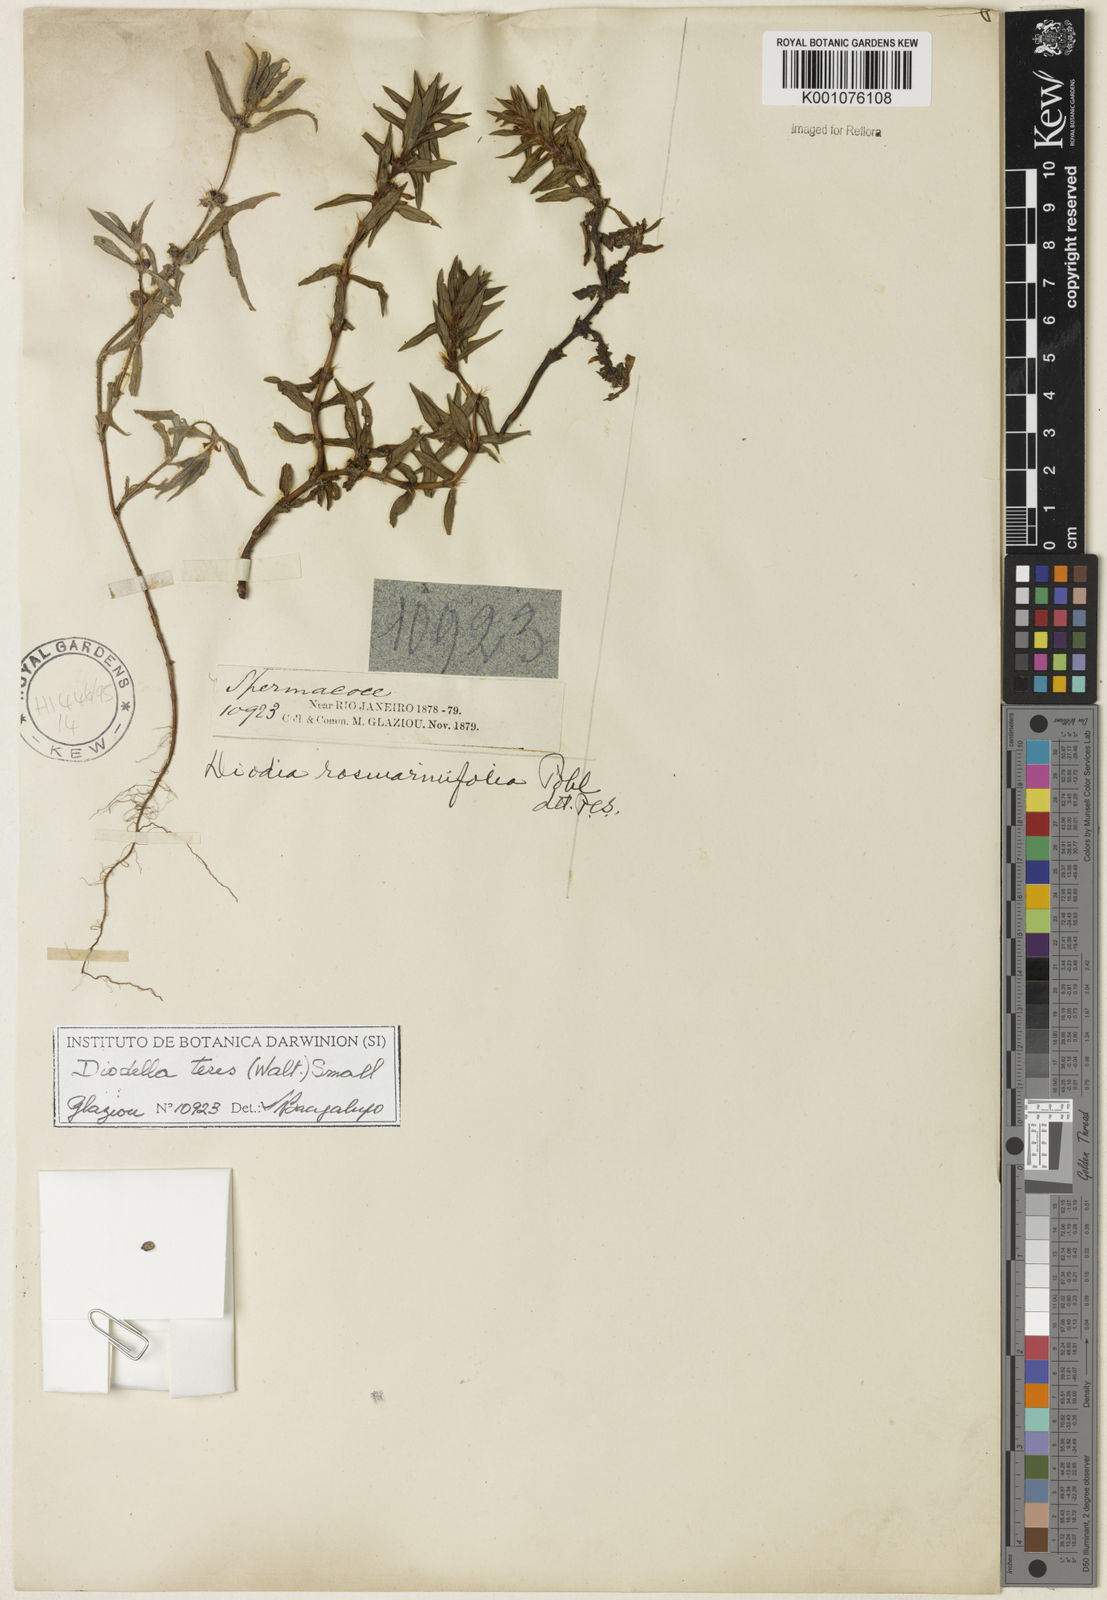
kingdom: Plantae
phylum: Tracheophyta
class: Magnoliopsida
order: Gentianales
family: Rubiaceae
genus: Hexasepalum
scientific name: Hexasepalum teres
